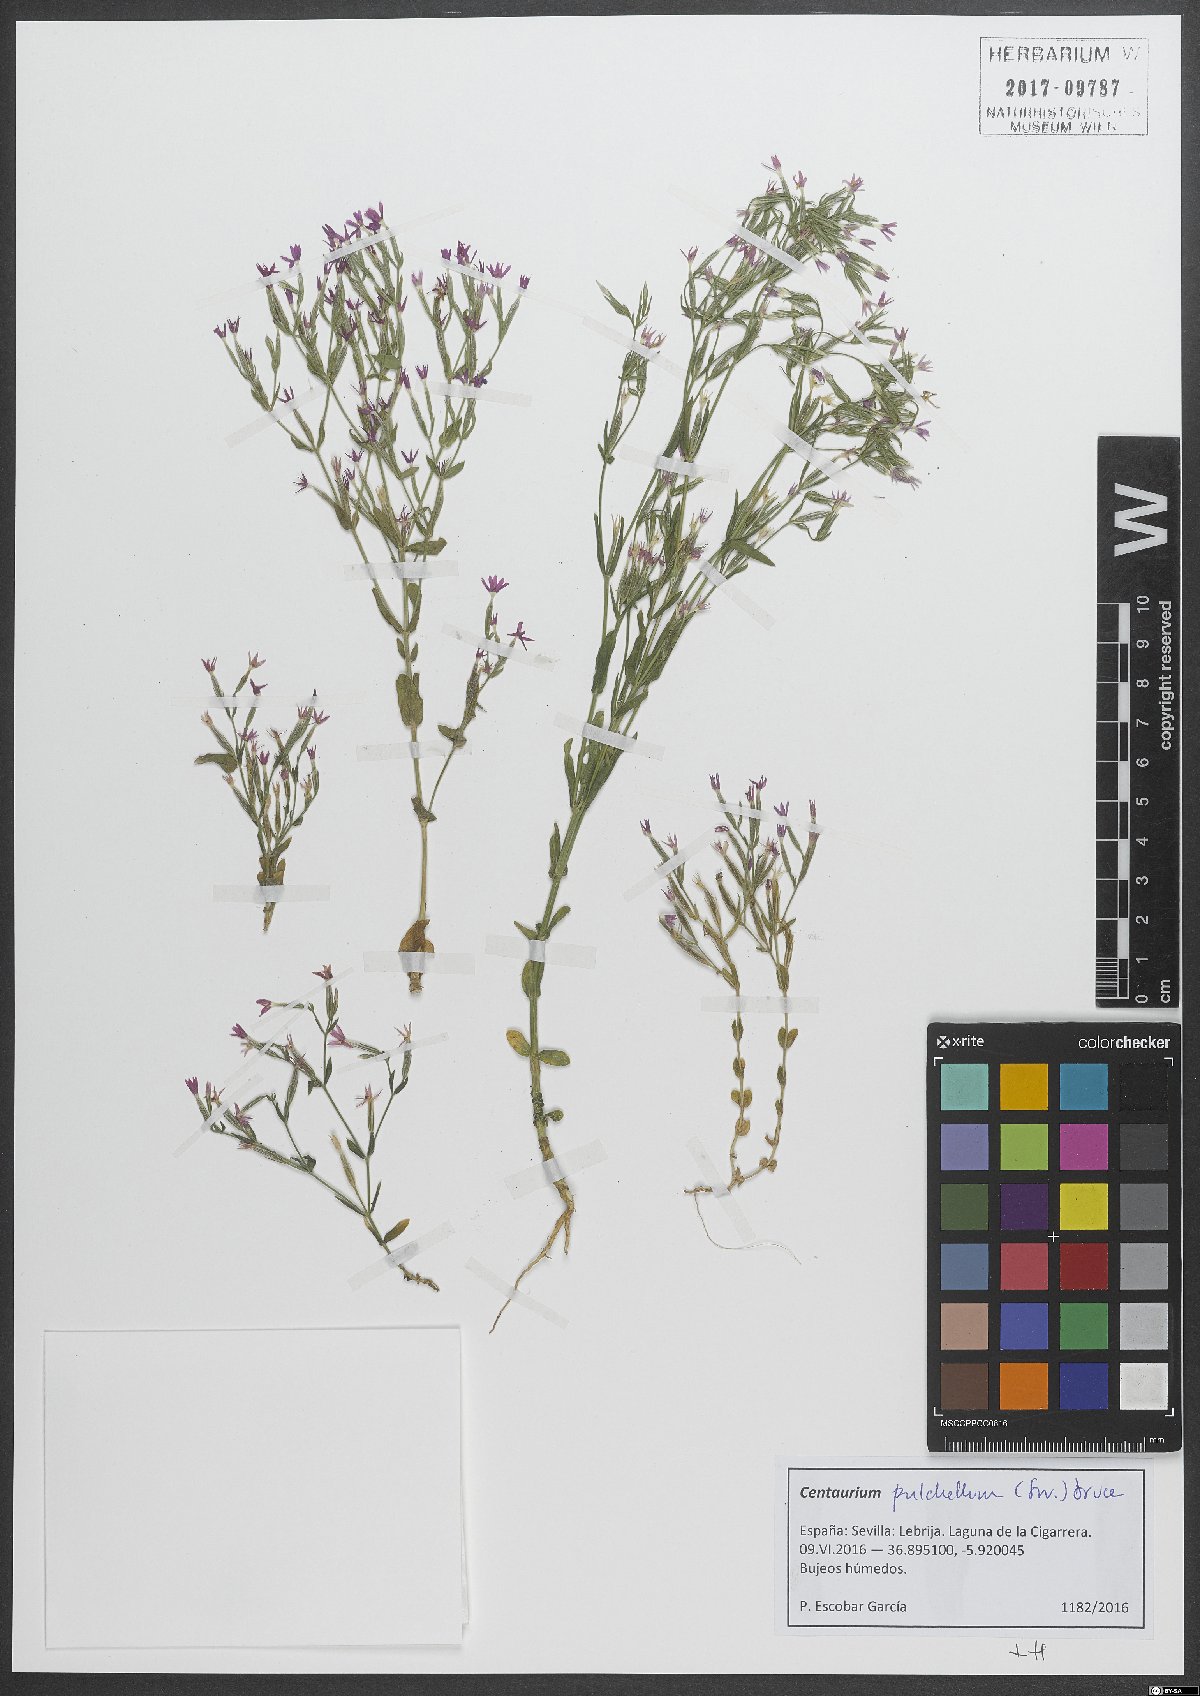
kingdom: Plantae
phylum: Tracheophyta
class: Magnoliopsida
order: Gentianales
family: Gentianaceae
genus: Centaurium
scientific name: Centaurium pulchellum
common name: Lesser centaury
